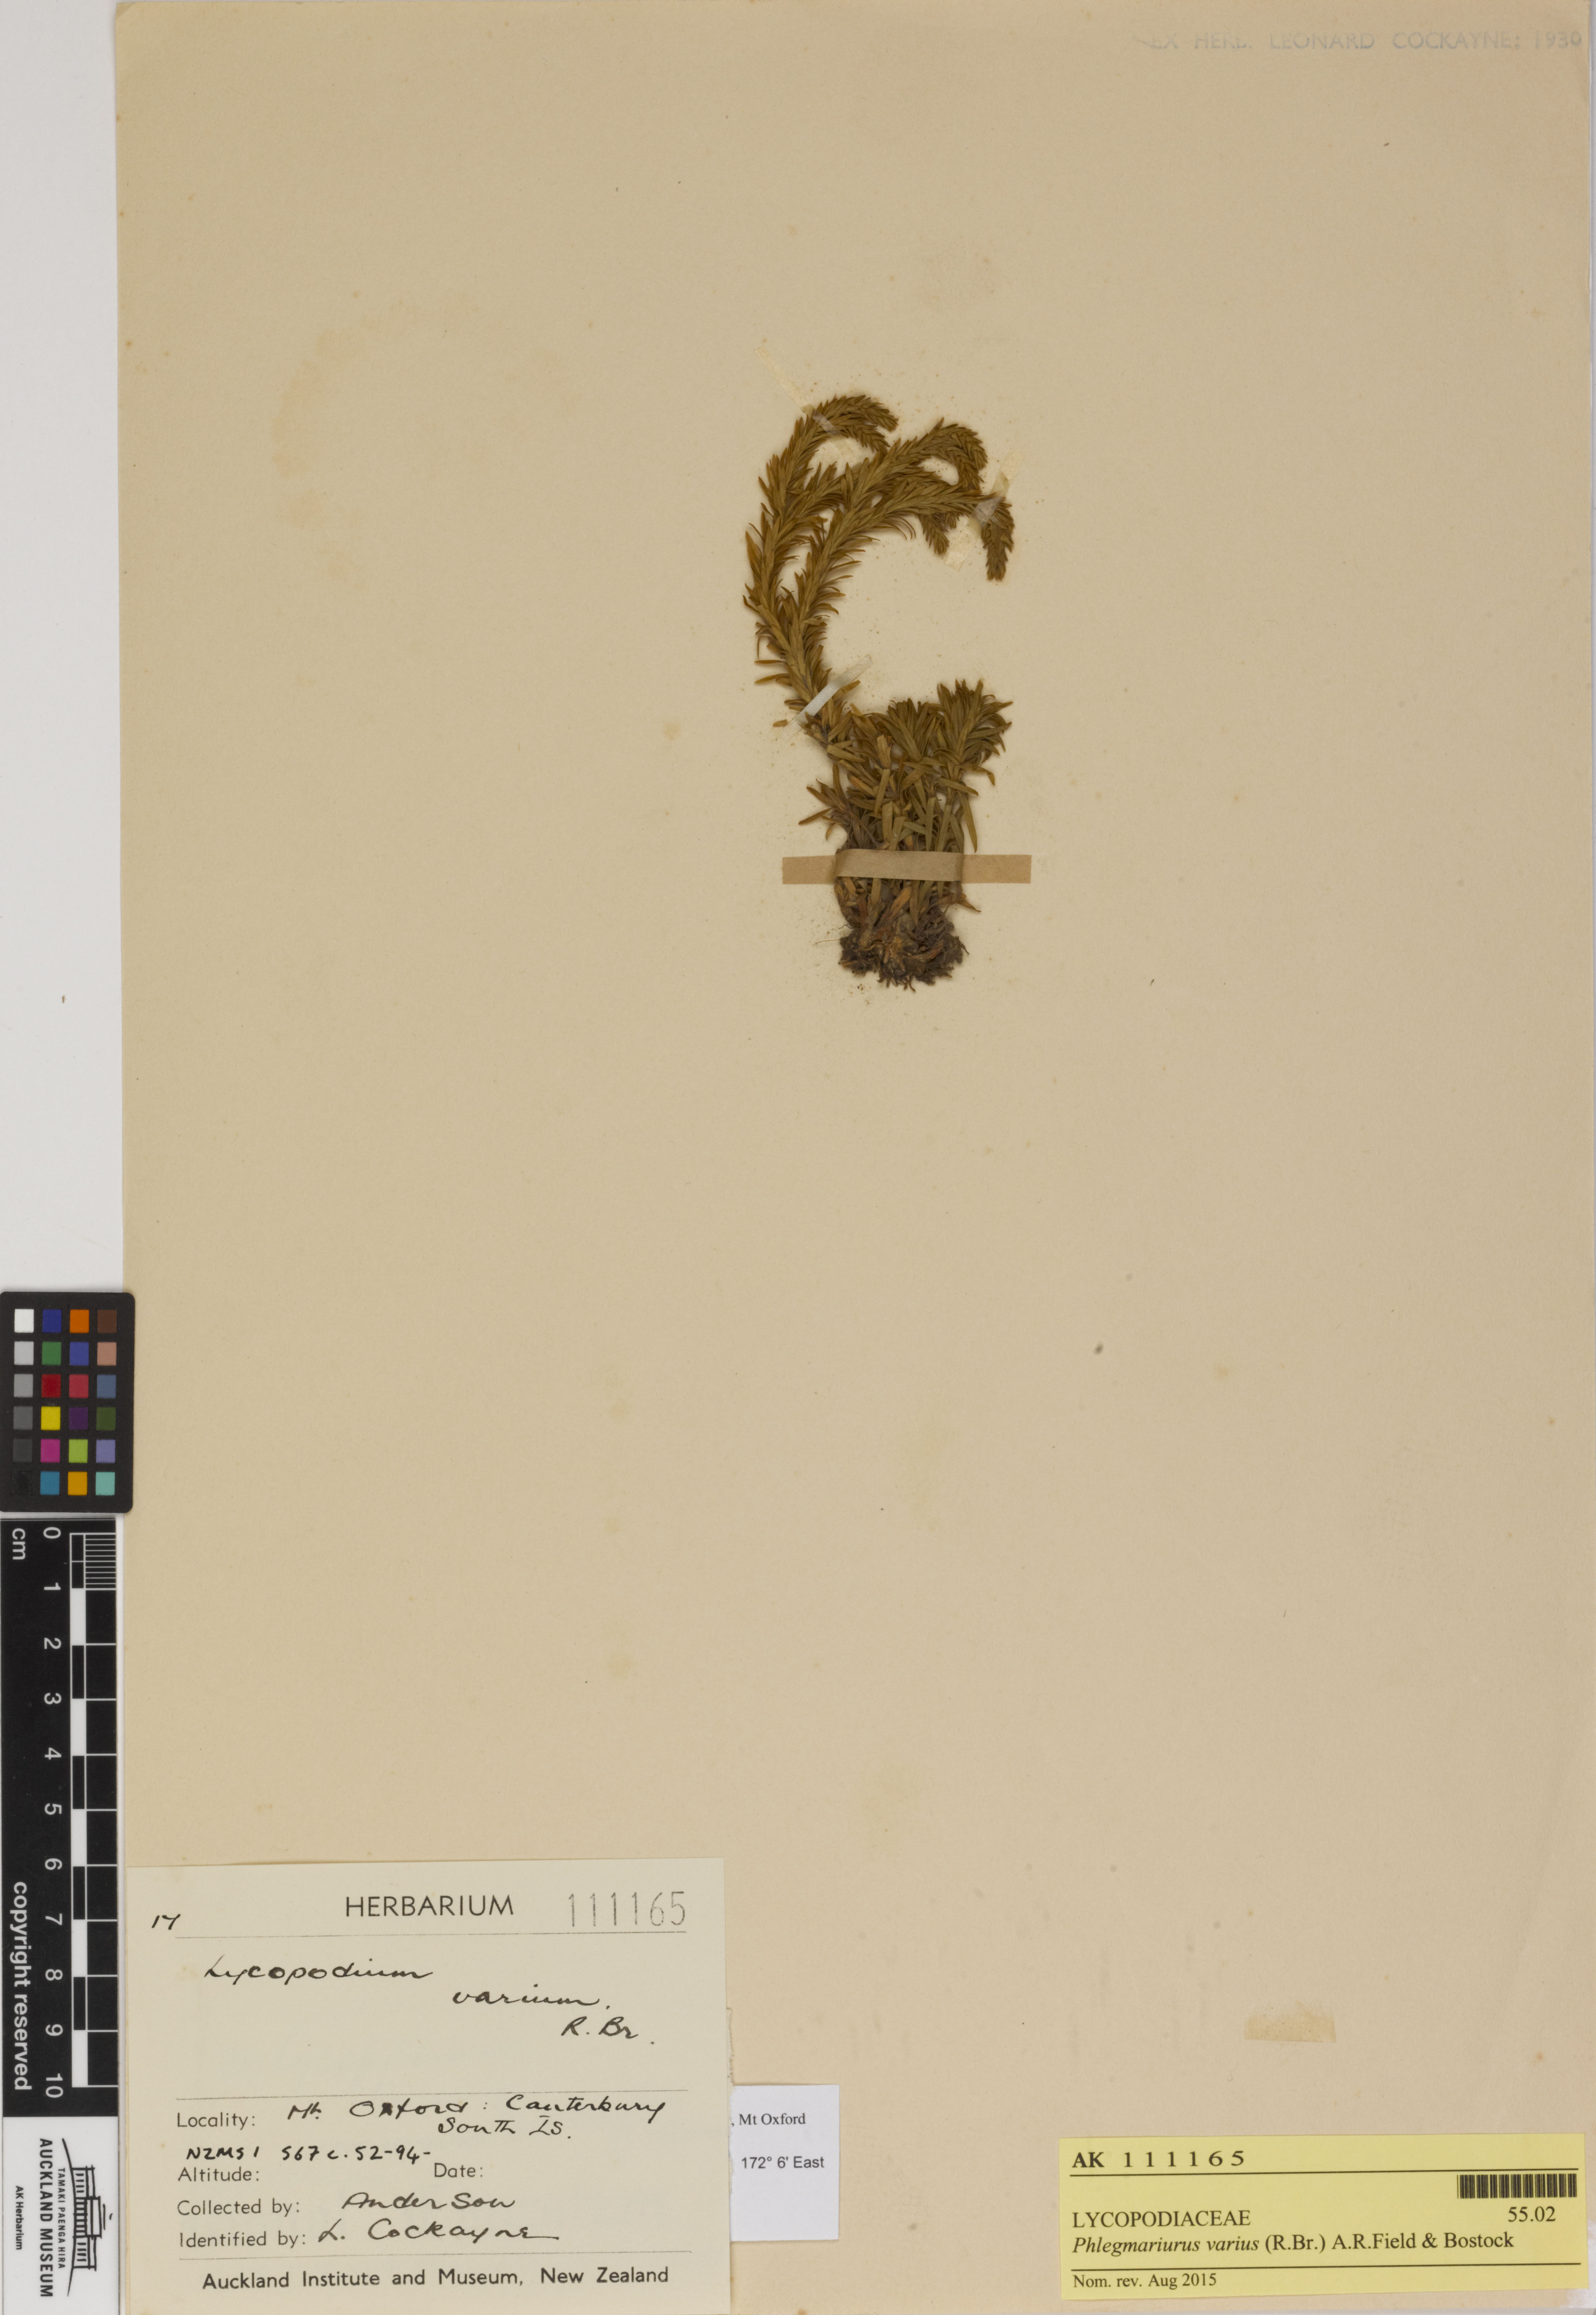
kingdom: Plantae
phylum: Tracheophyta
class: Lycopodiopsida
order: Lycopodiales
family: Lycopodiaceae
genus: Phlegmariurus
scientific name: Phlegmariurus varius
